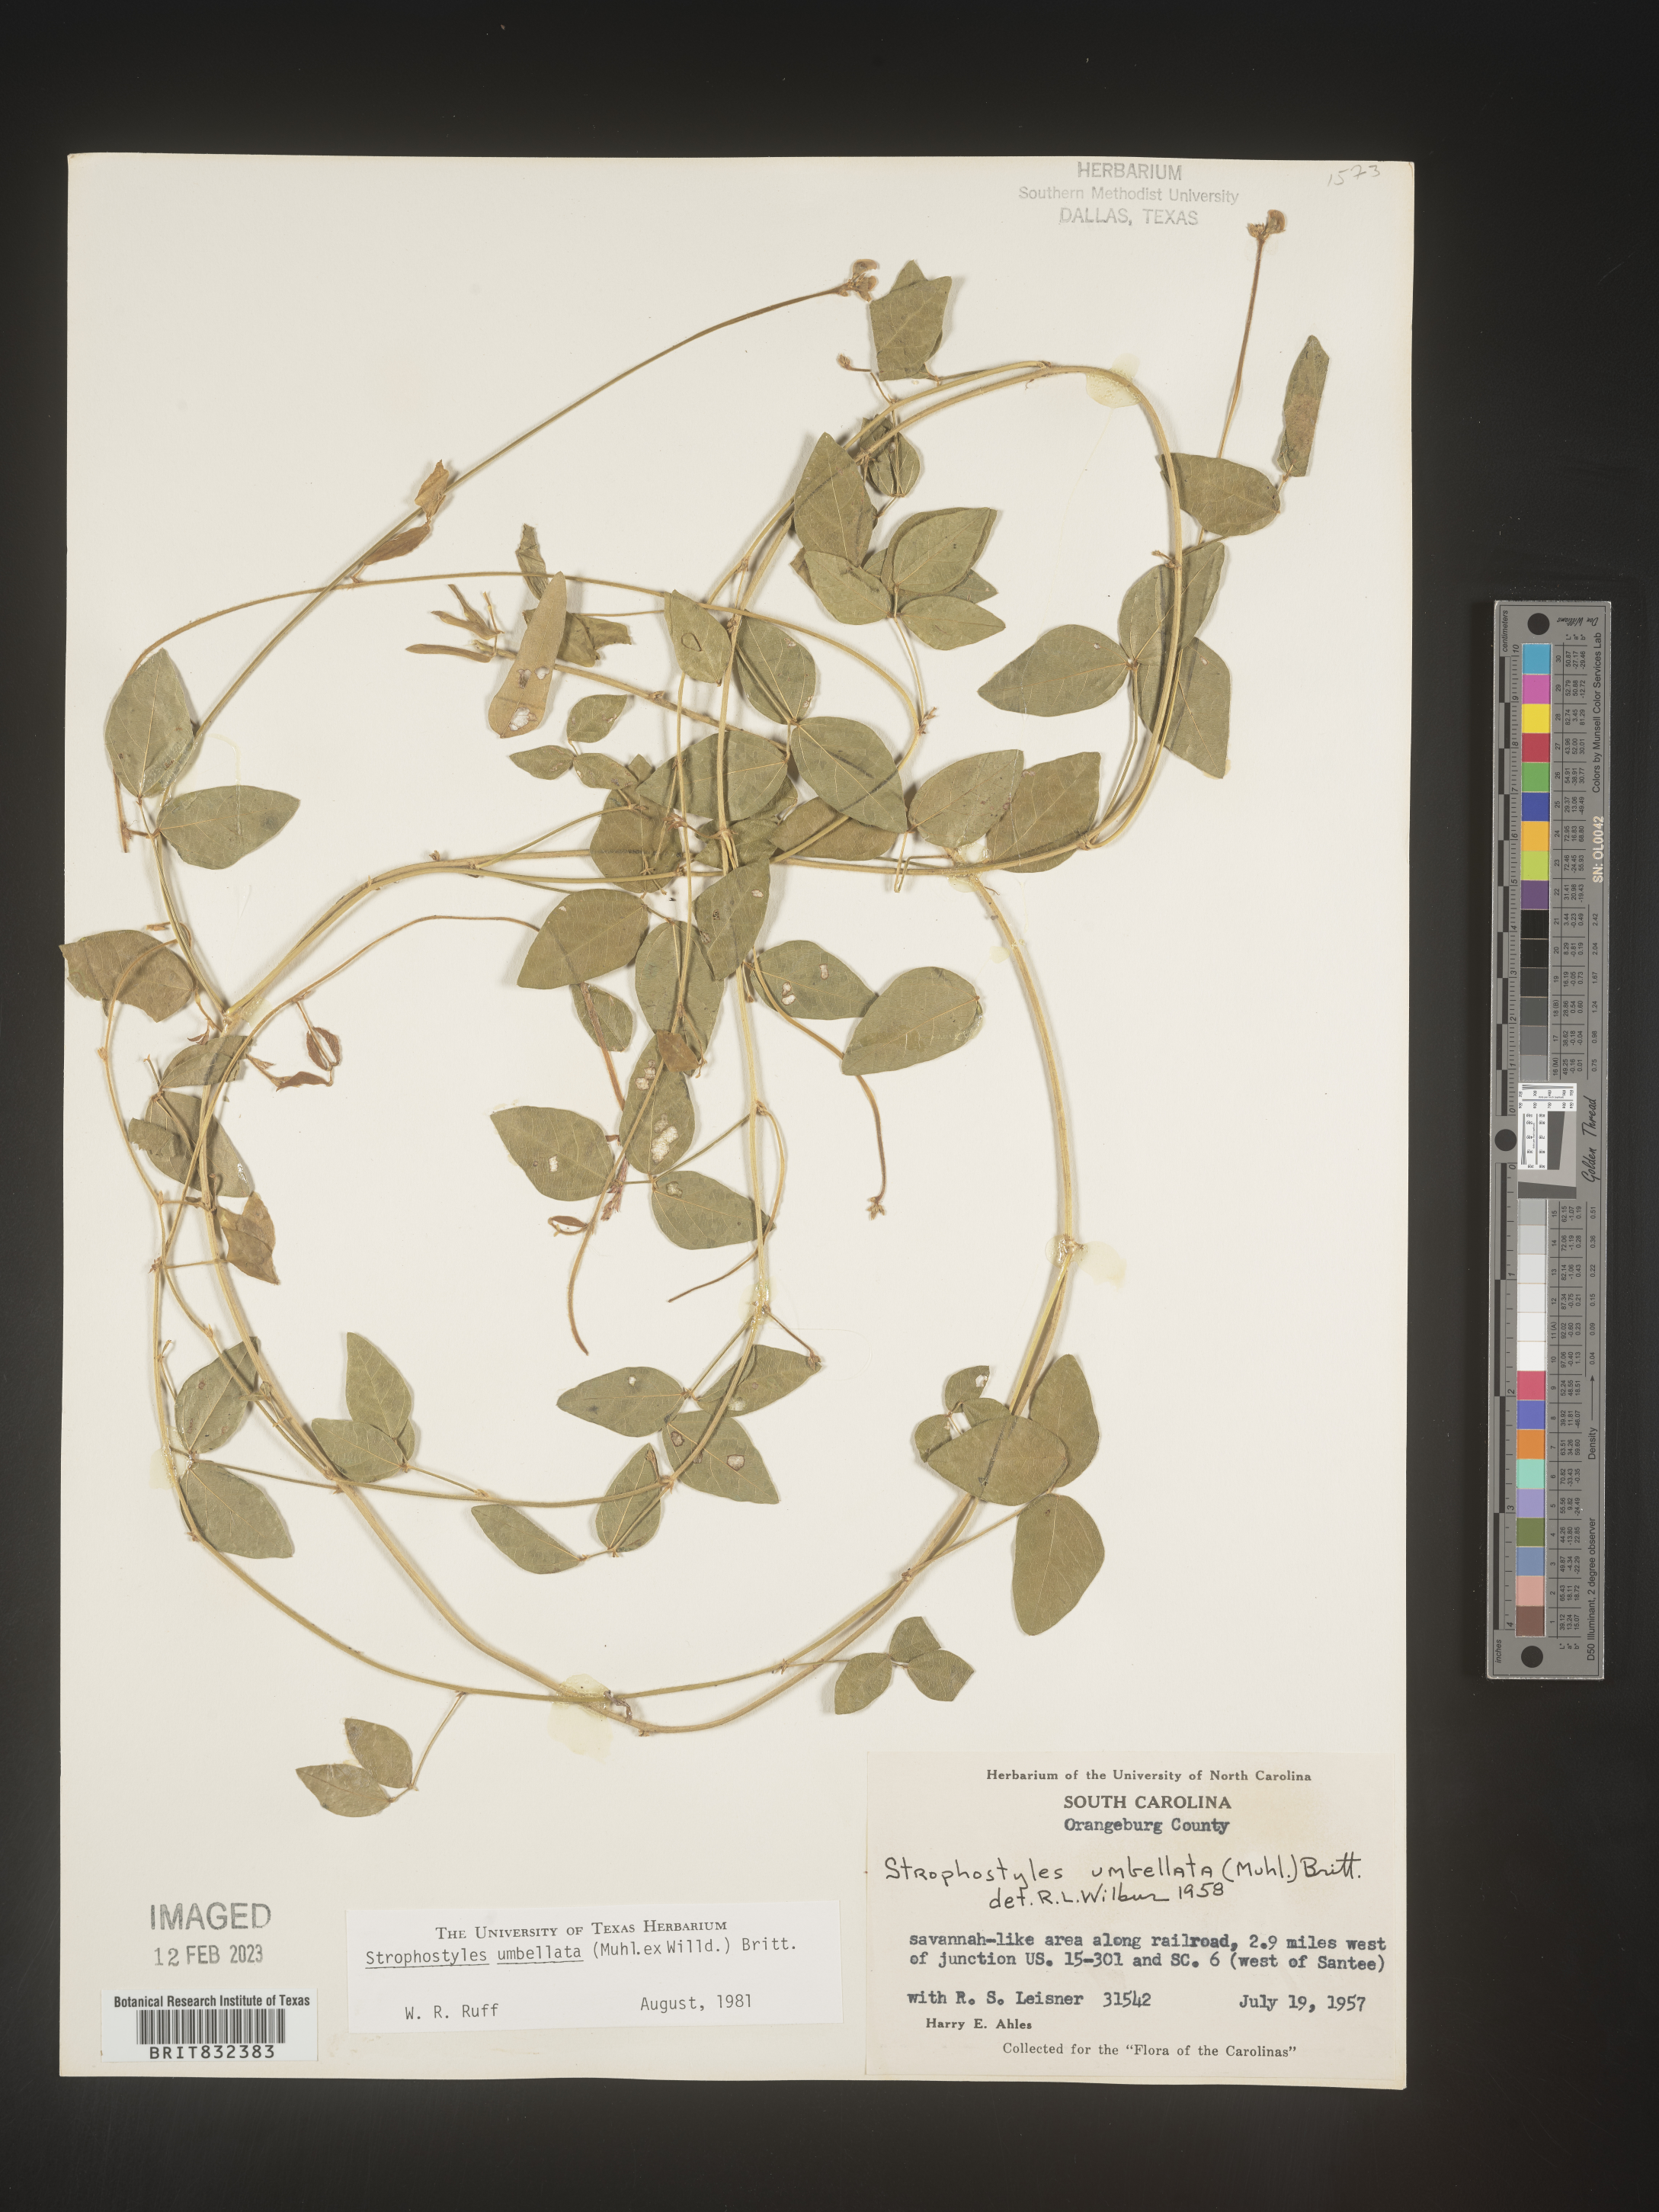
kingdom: Plantae
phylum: Tracheophyta
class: Magnoliopsida
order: Fabales
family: Fabaceae
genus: Strophostyles
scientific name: Strophostyles umbellata
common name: Perennial wild bean
